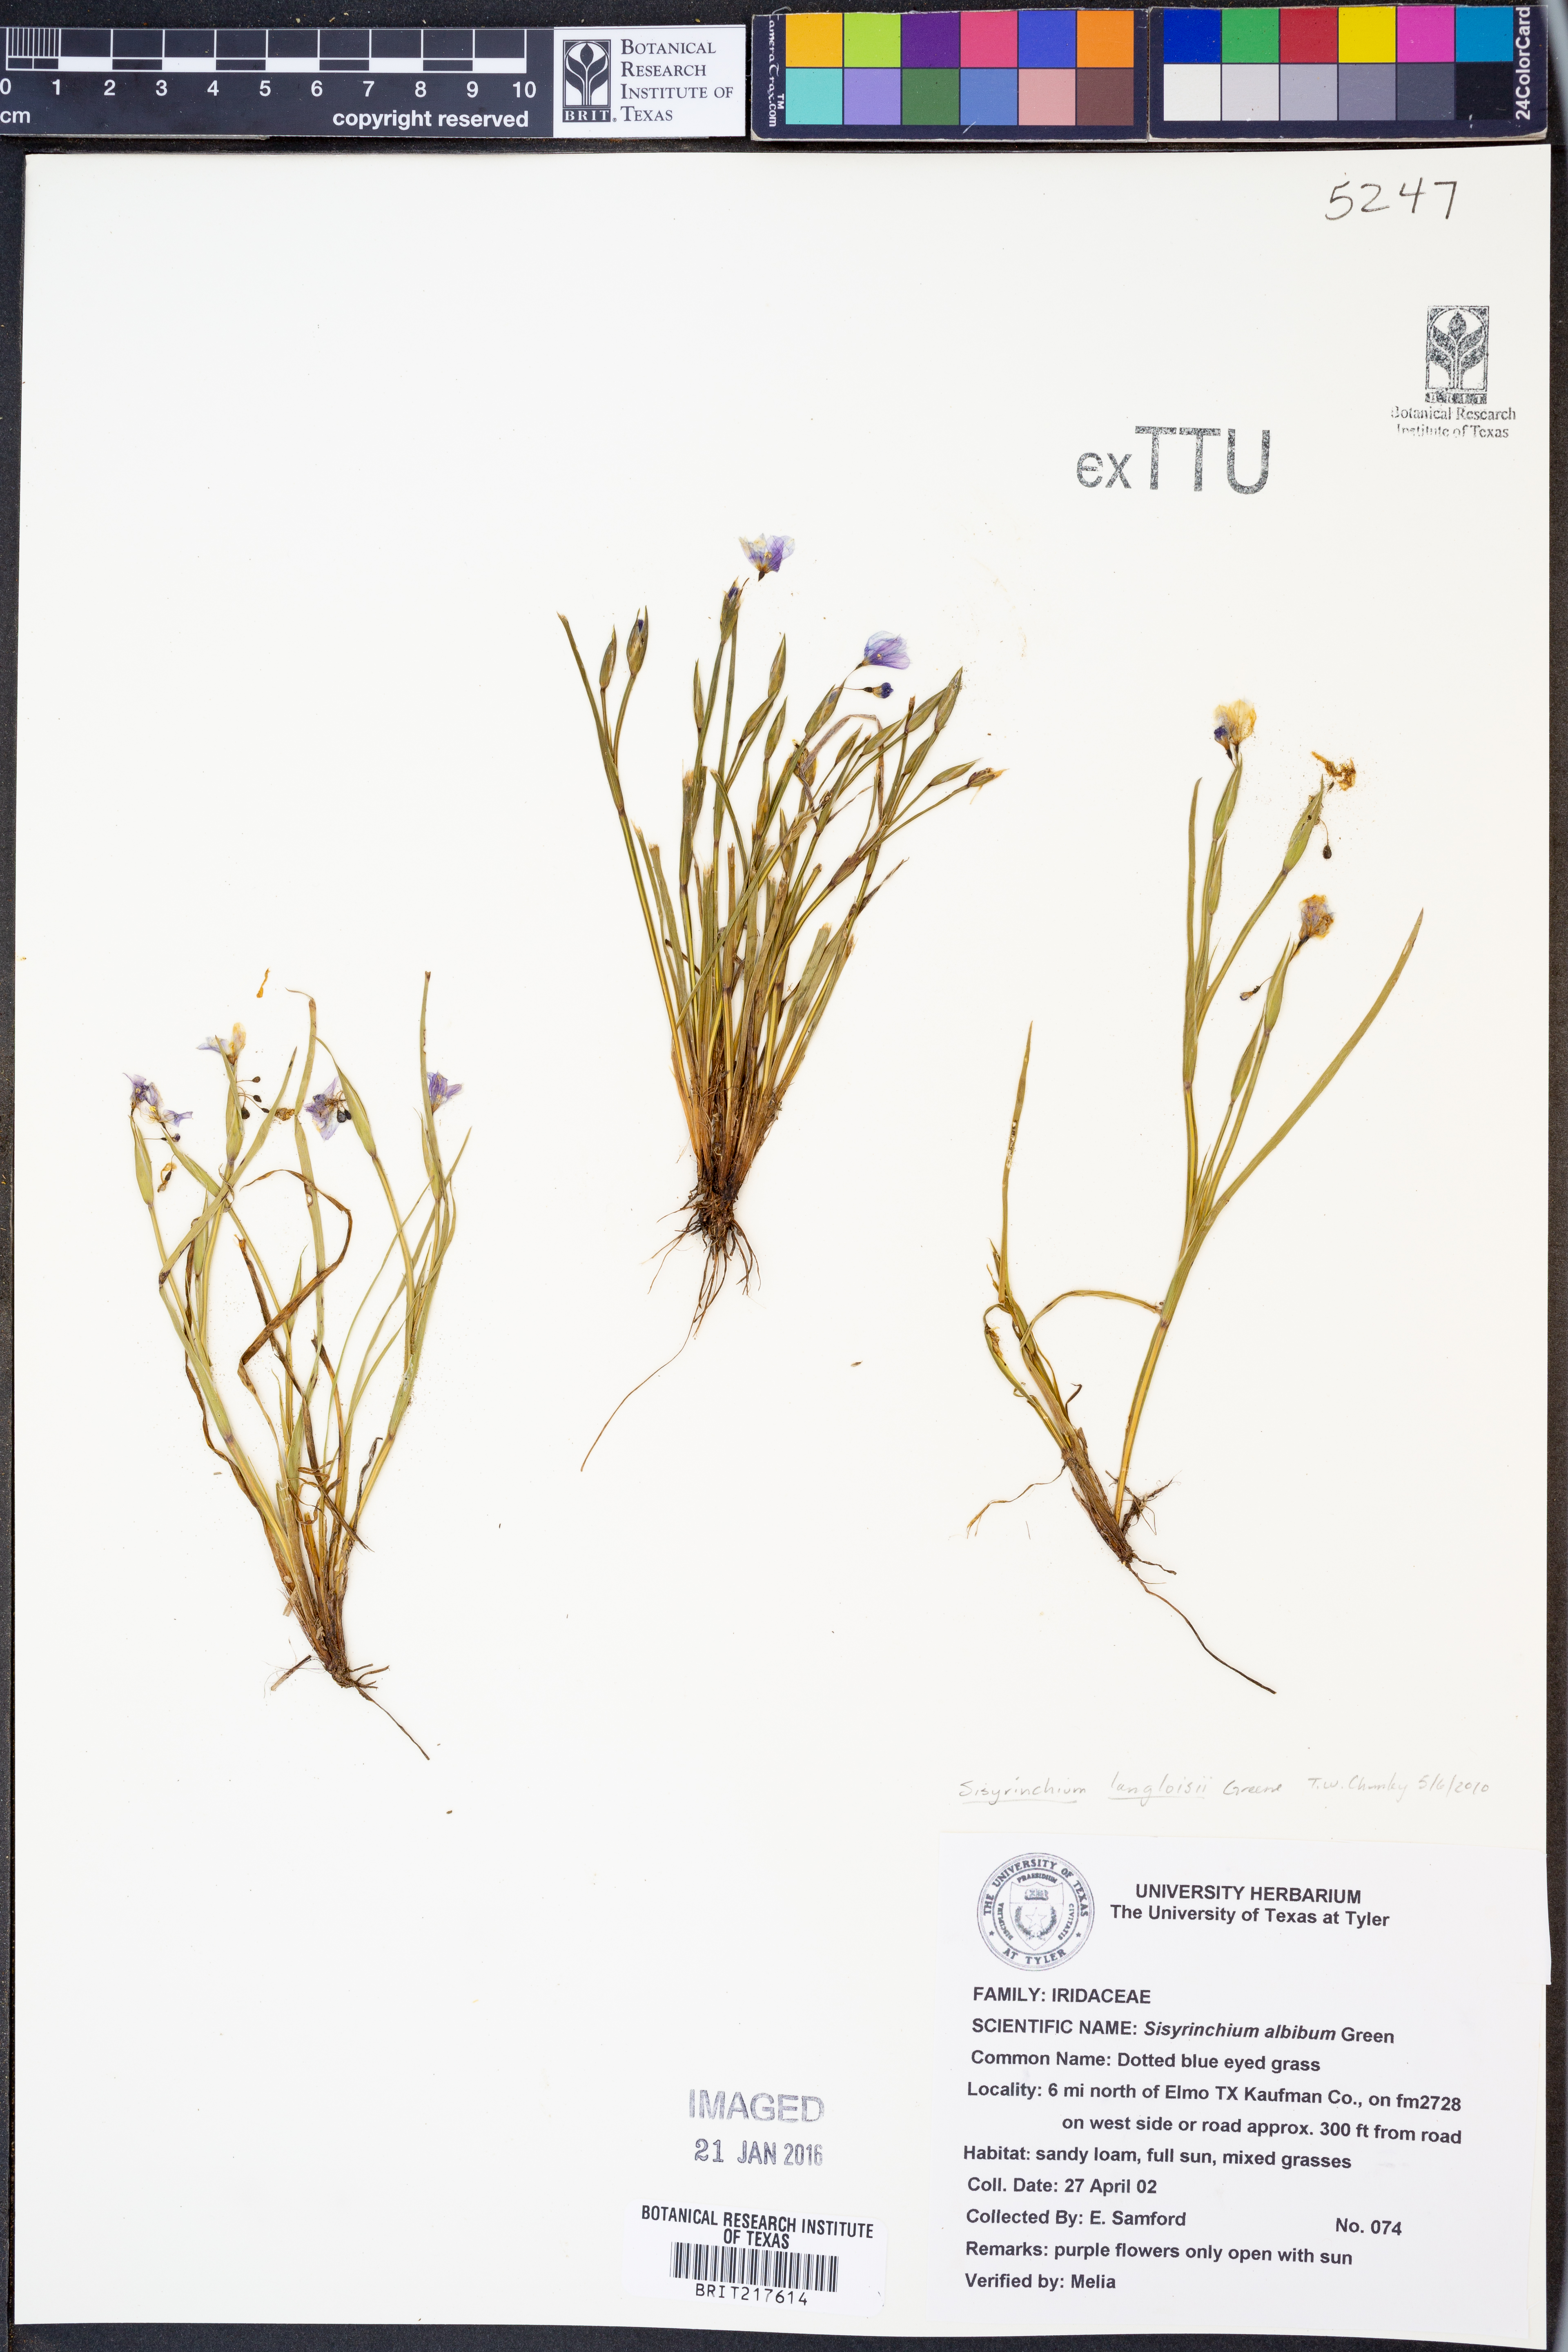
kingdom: Plantae
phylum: Tracheophyta
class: Liliopsida
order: Asparagales
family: Iridaceae
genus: Sisyrinchium
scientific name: Sisyrinchium langloisii
